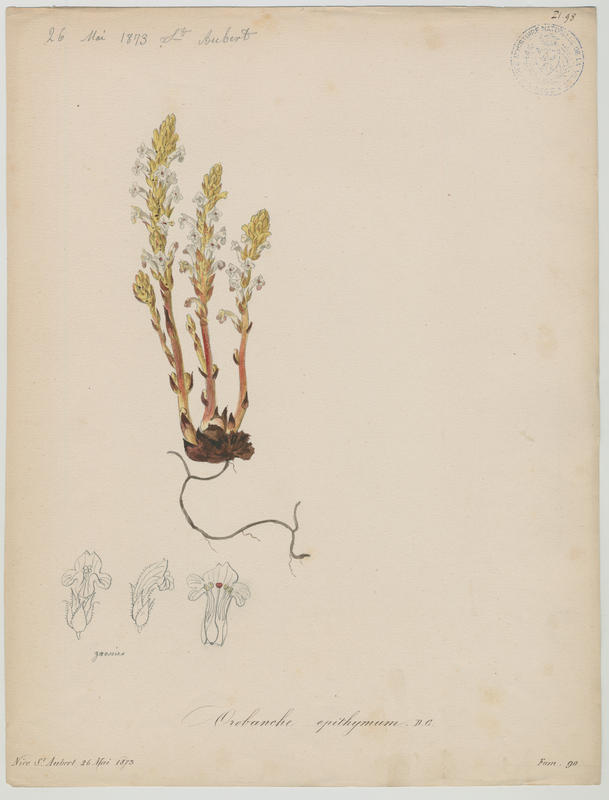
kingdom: Plantae
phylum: Tracheophyta
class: Magnoliopsida
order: Lamiales
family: Orobanchaceae
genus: Orobanche
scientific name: Orobanche alba
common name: Thyme broomrape
